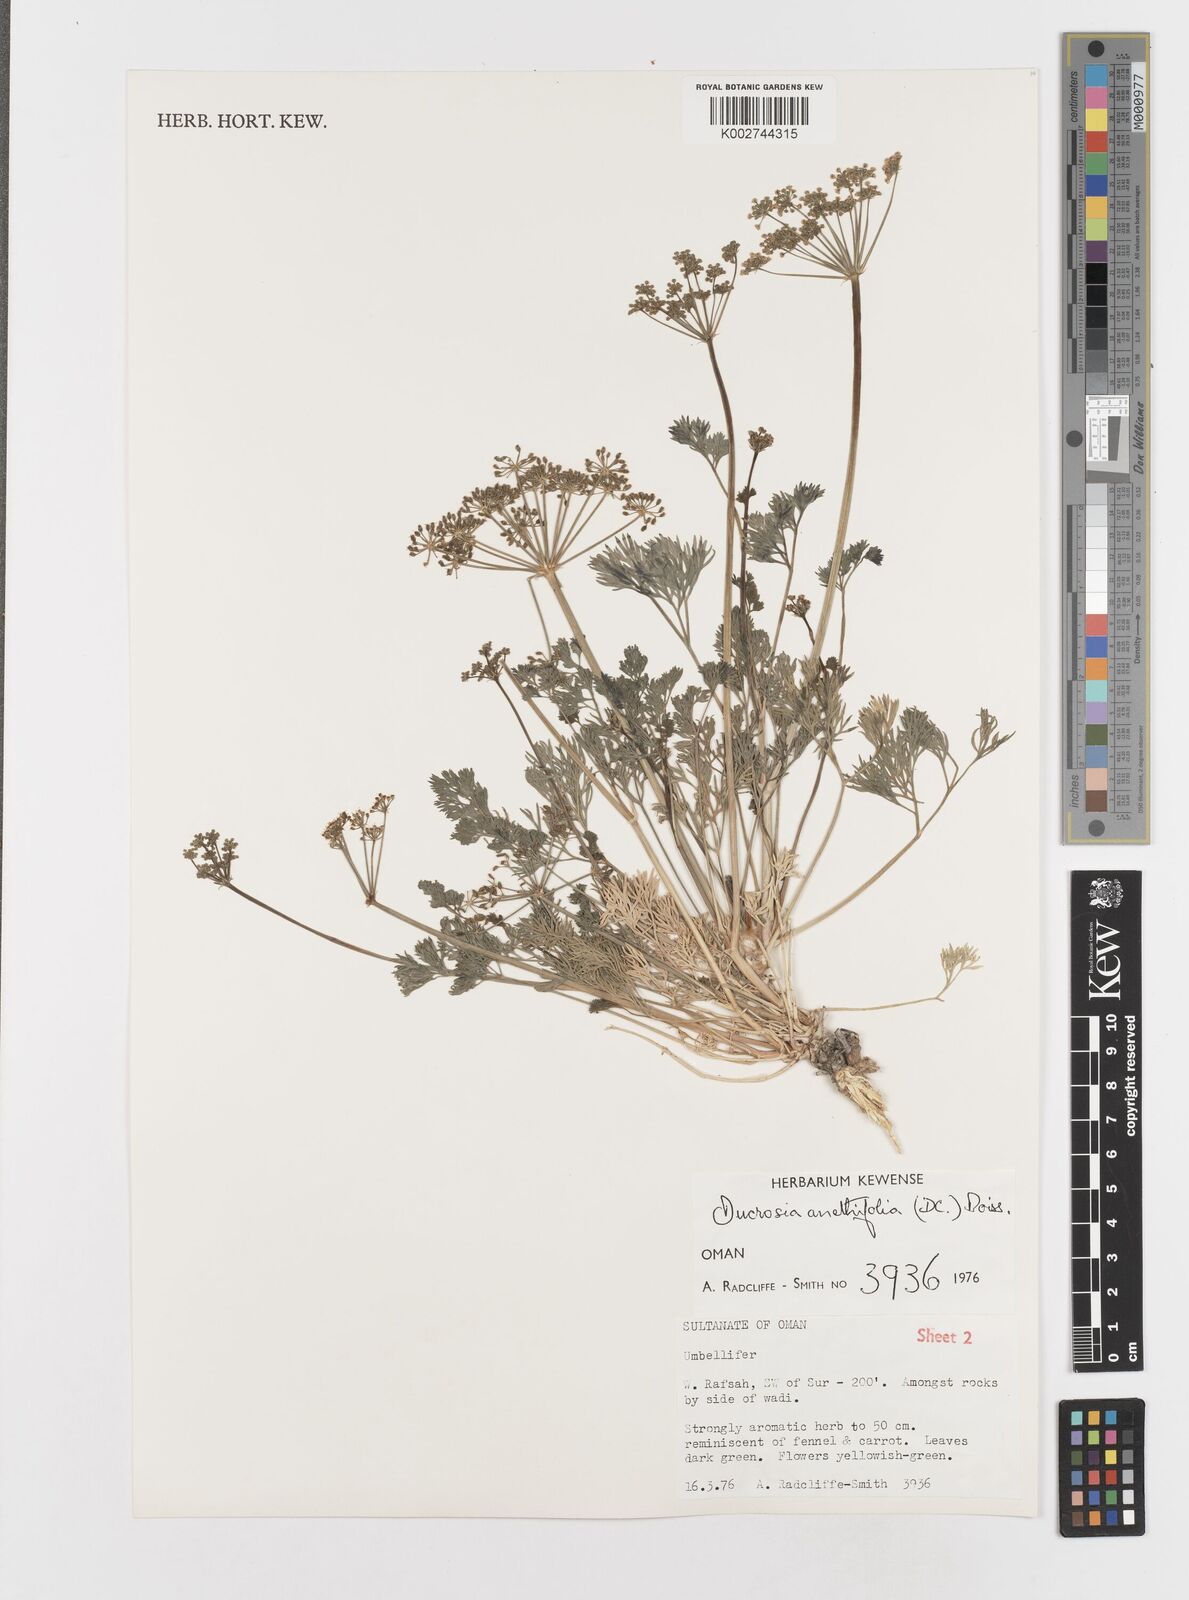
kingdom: Plantae
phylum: Tracheophyta
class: Magnoliopsida
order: Apiales
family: Apiaceae
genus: Ducrosia
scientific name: Ducrosia anethifolia
